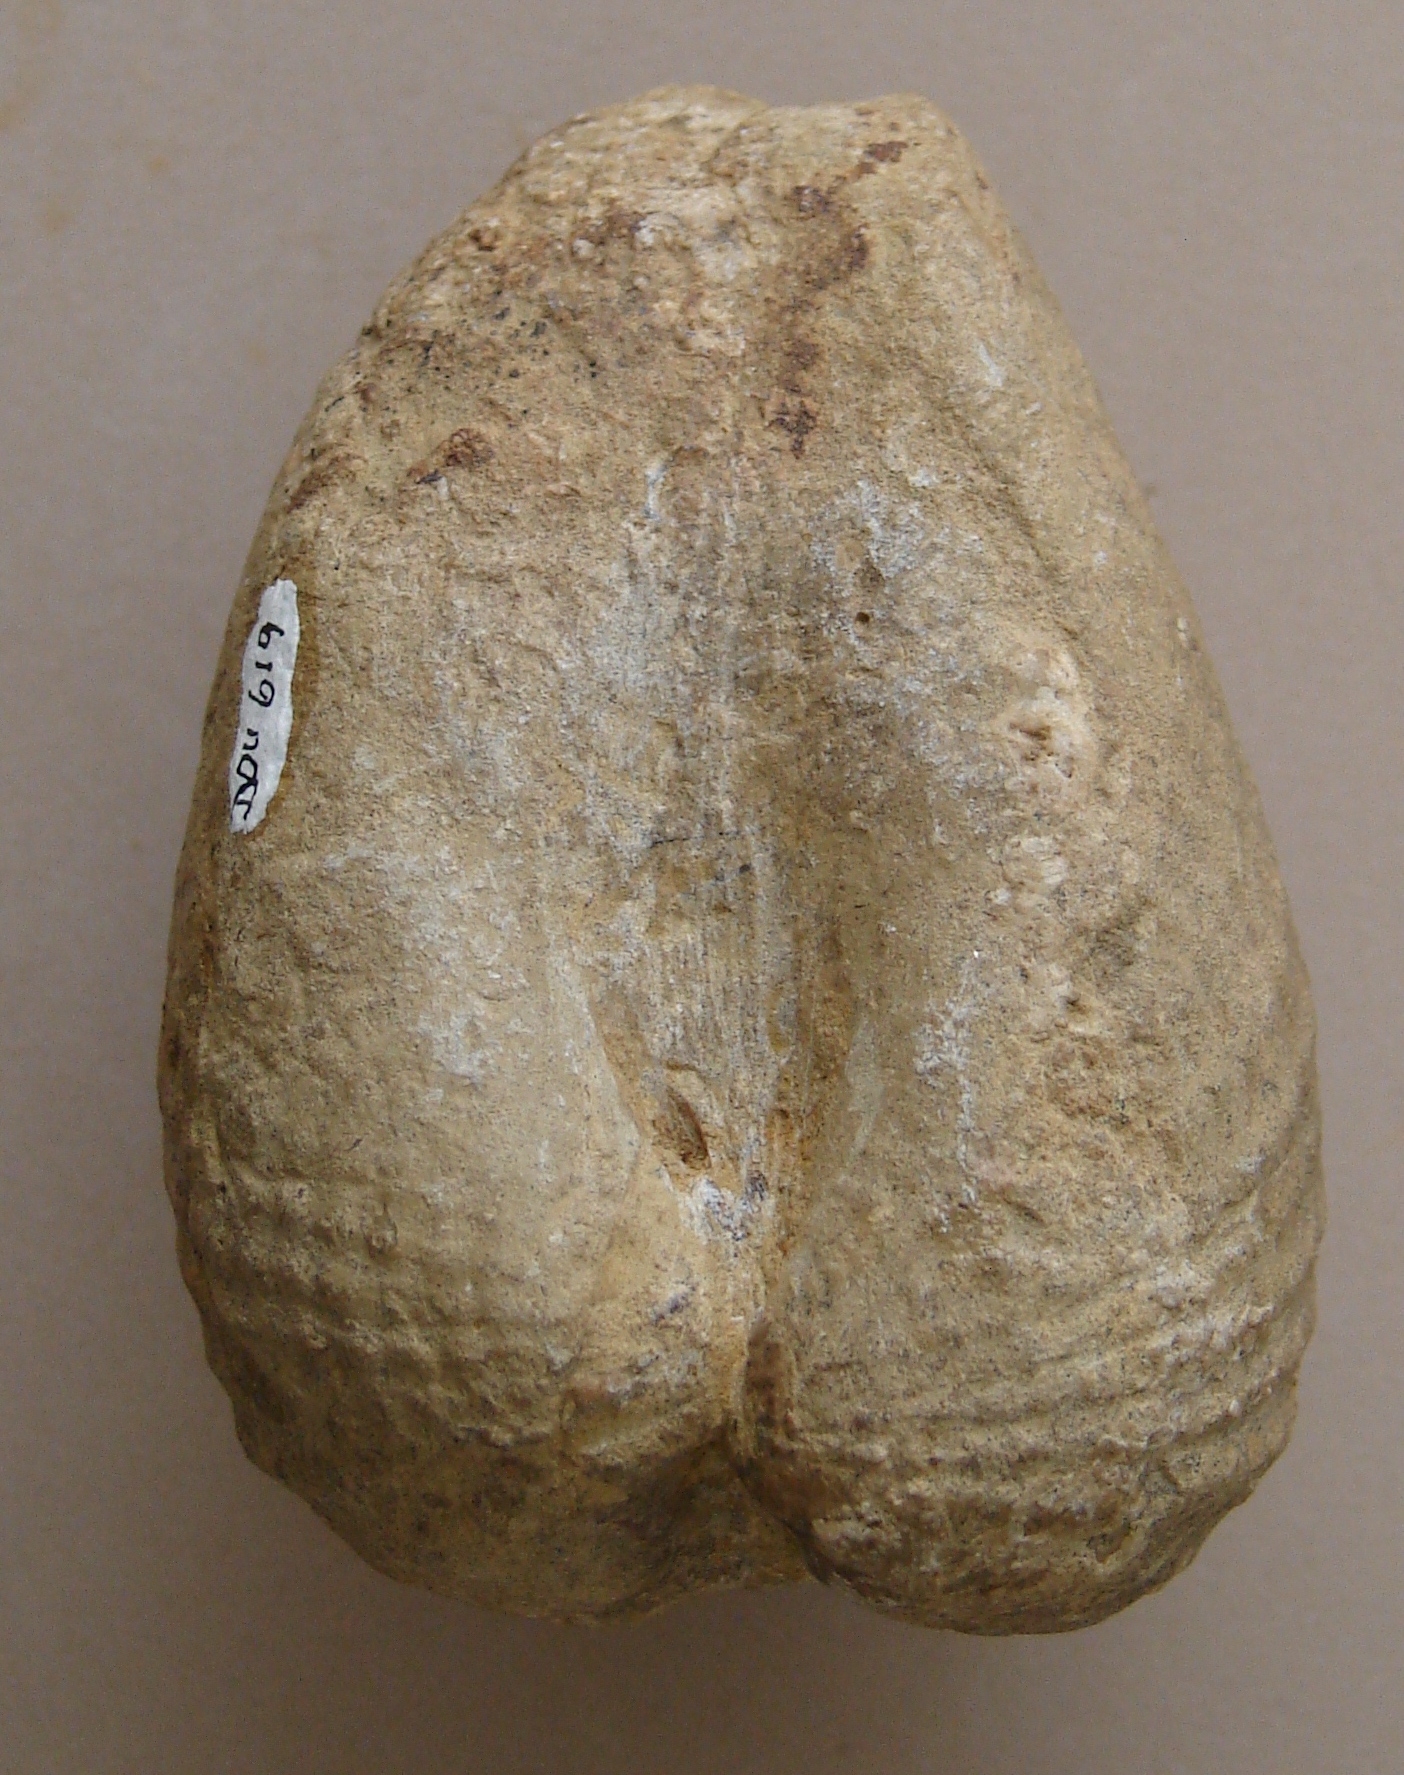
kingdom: Animalia
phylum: Mollusca
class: Bivalvia
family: Pholadomyidae
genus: Pholadomya
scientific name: Pholadomya
